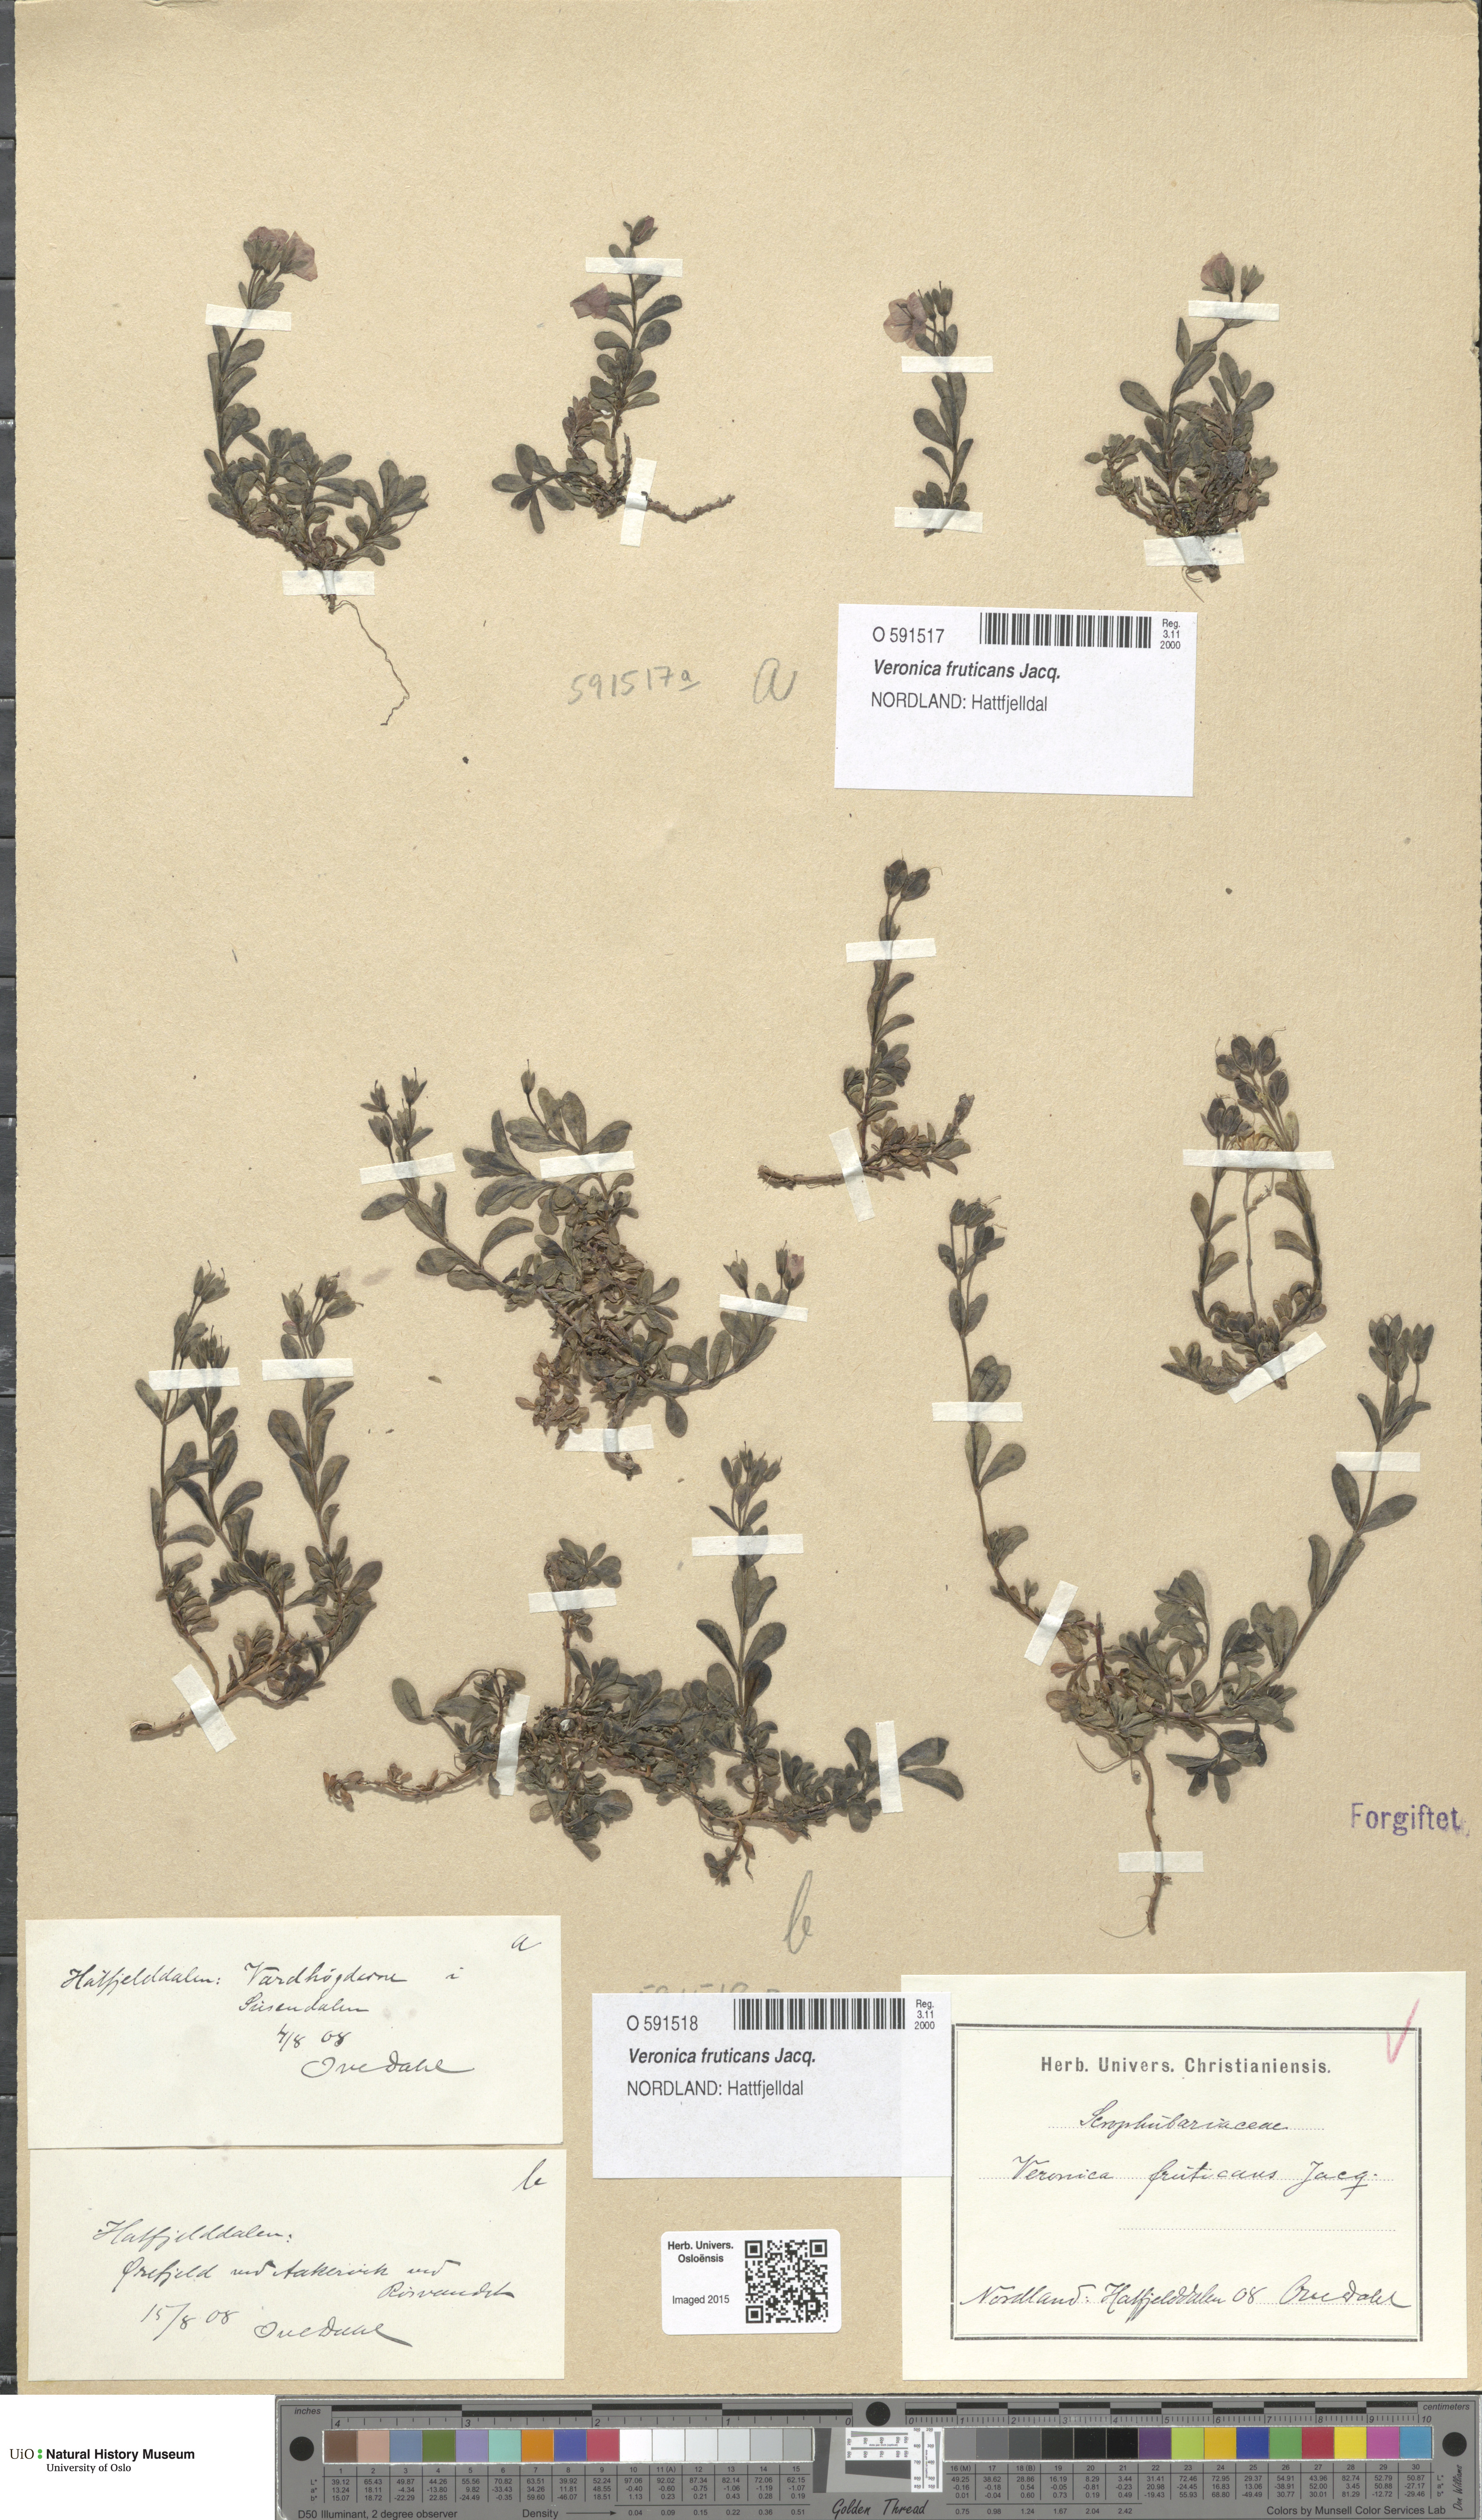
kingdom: Plantae
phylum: Tracheophyta
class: Magnoliopsida
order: Lamiales
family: Plantaginaceae
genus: Veronica
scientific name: Veronica fruticans
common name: Rock speedwell
